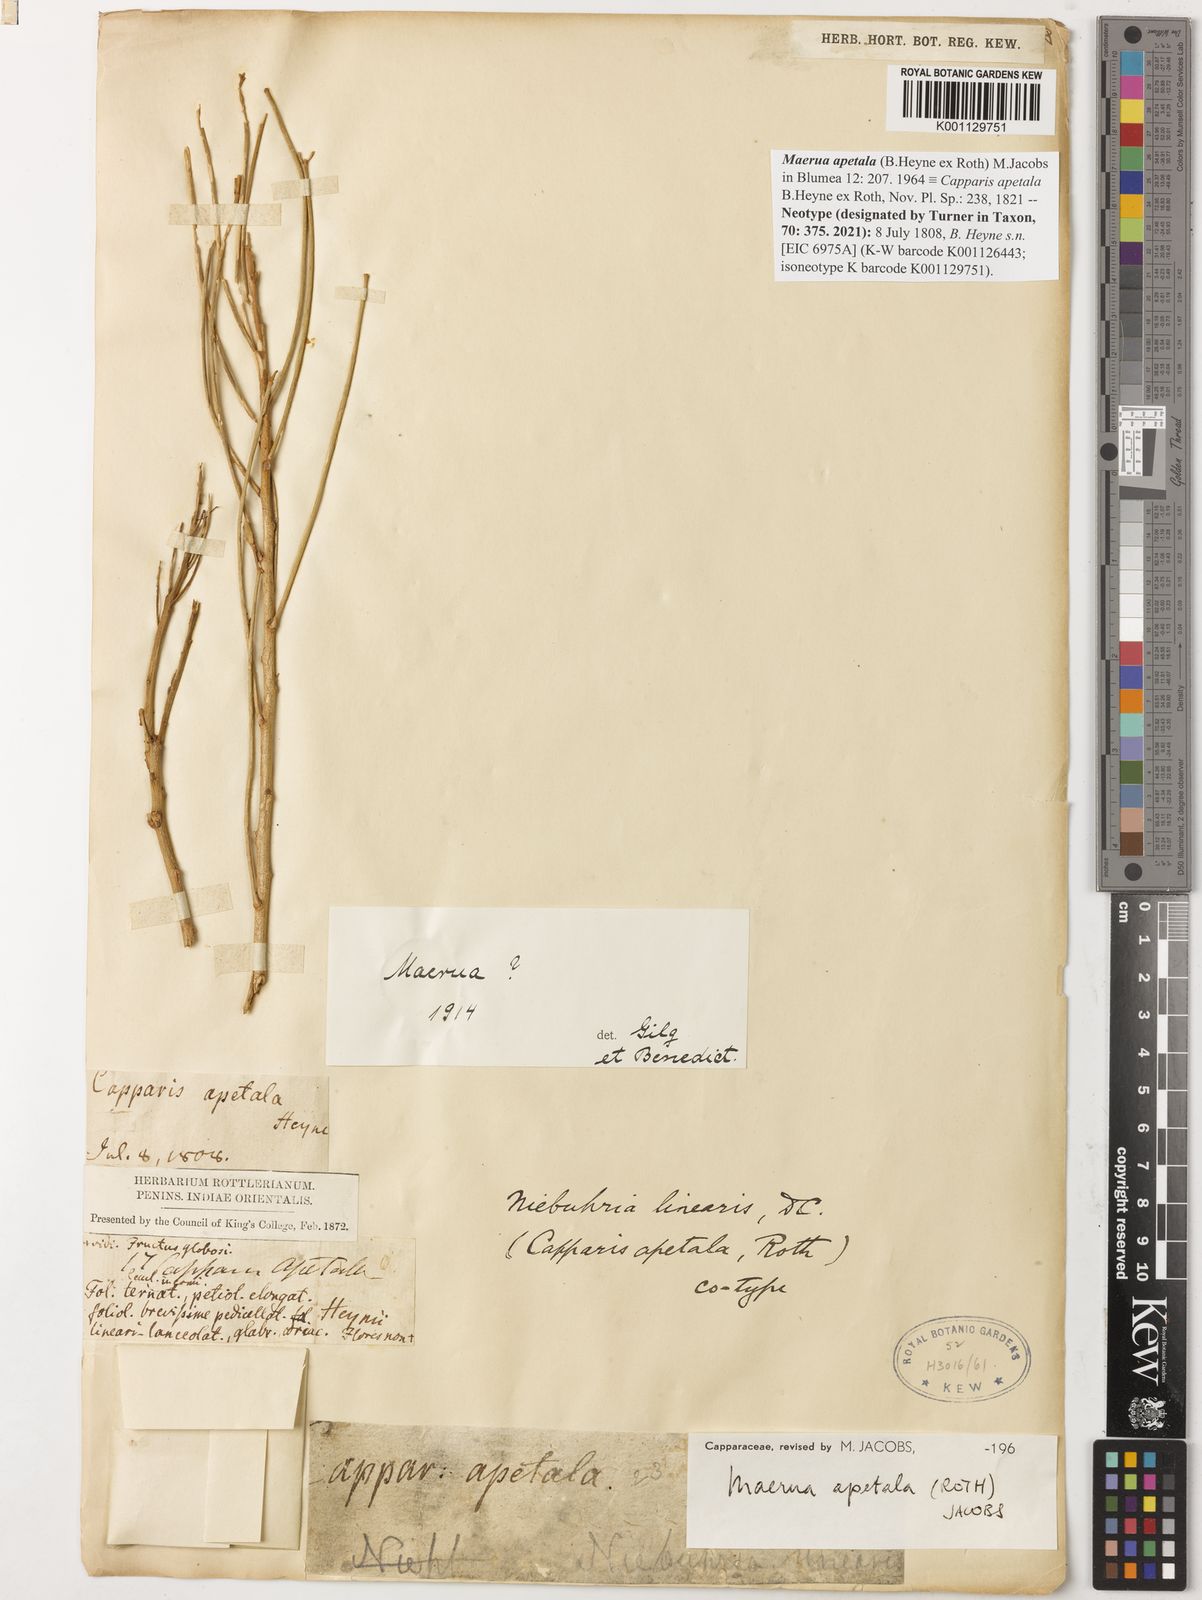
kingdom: Plantae
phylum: Tracheophyta
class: Magnoliopsida
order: Brassicales
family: Capparaceae
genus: Maerua
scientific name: Maerua apetala
